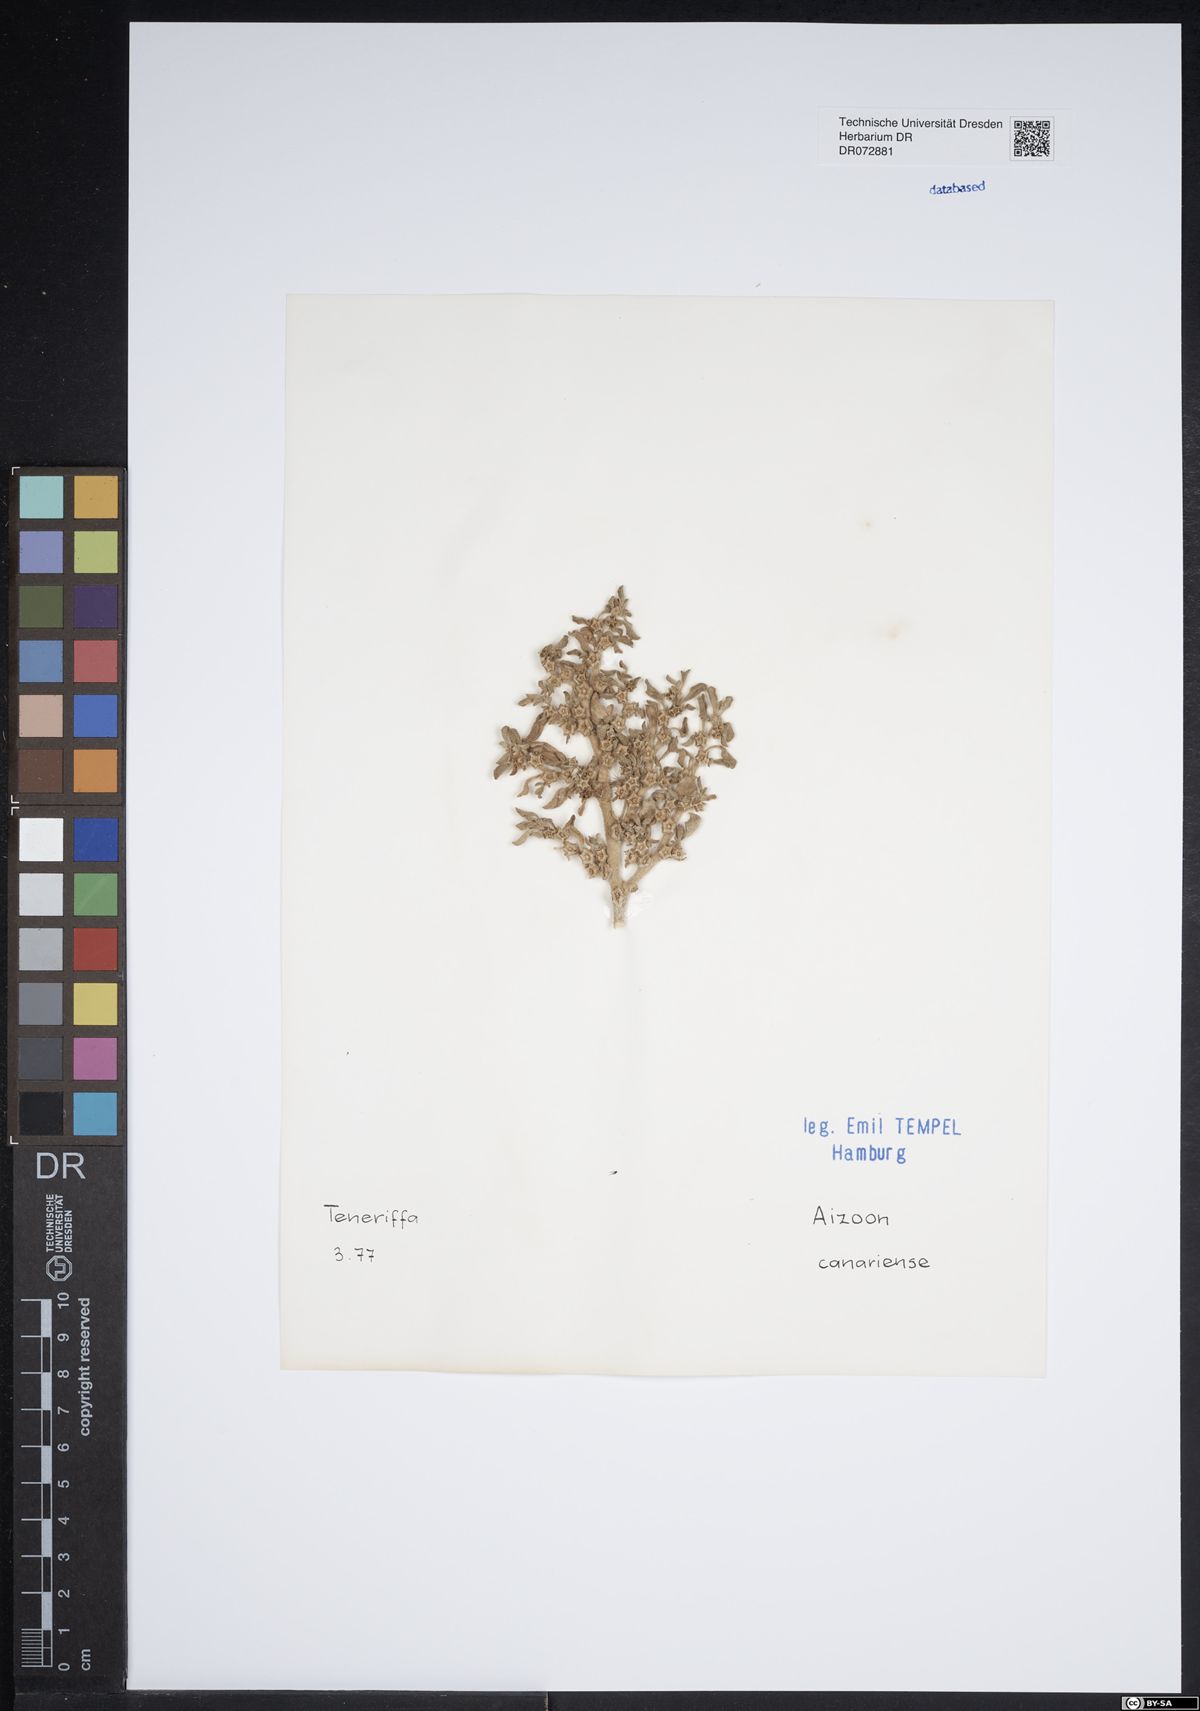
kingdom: Plantae
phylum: Tracheophyta
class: Magnoliopsida
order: Caryophyllales
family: Aizoaceae
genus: Aizoon
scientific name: Aizoon canariense
